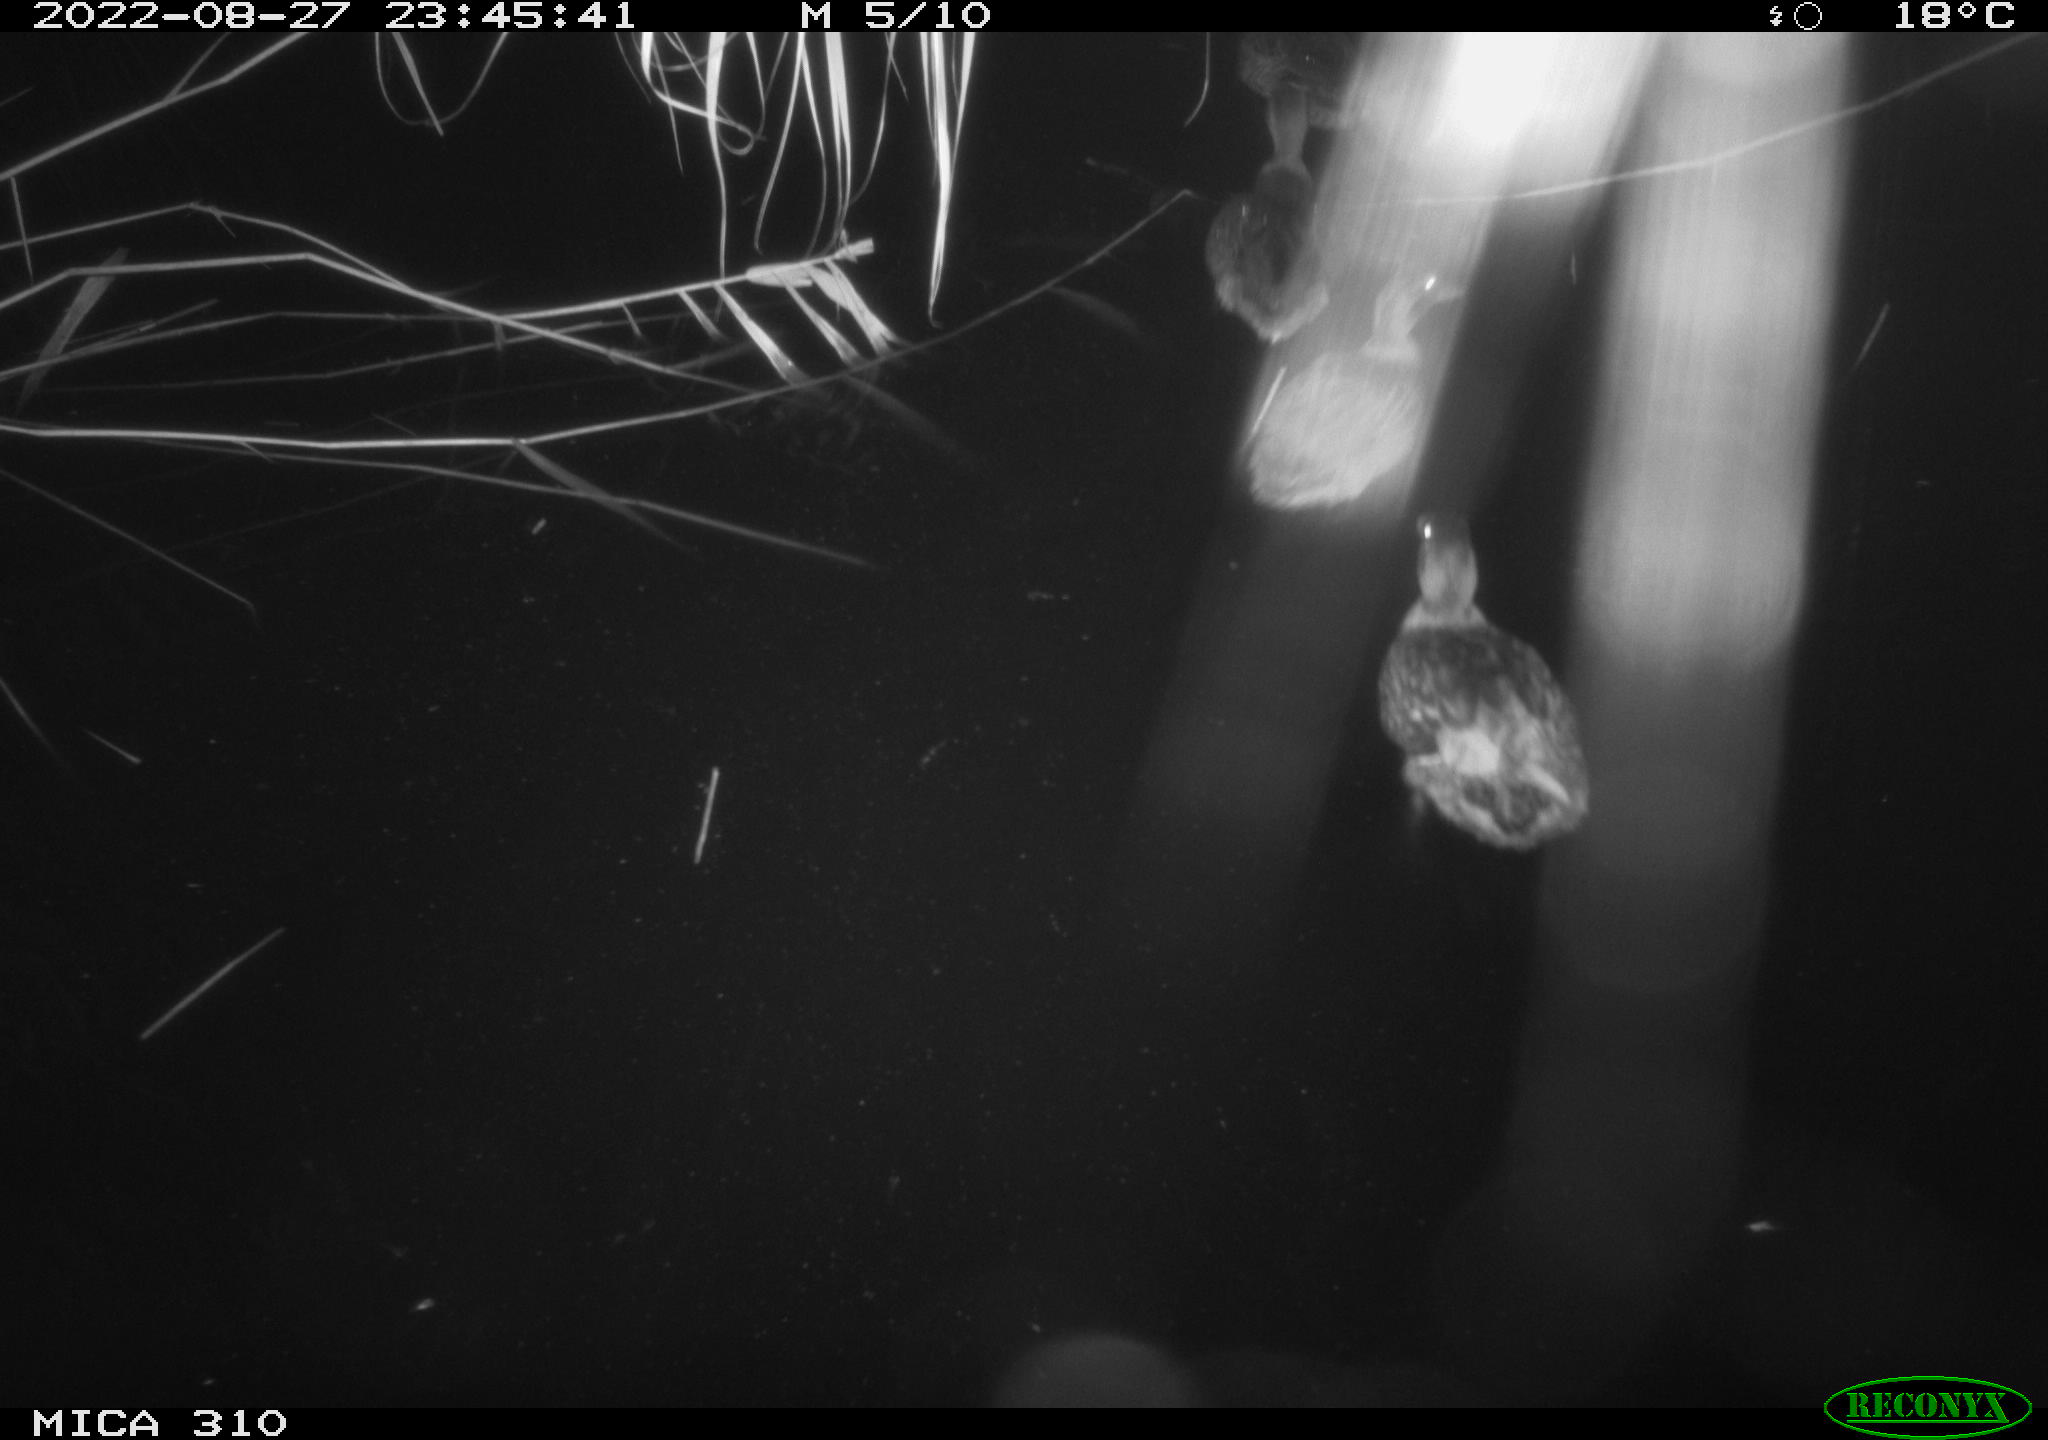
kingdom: Animalia
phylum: Chordata
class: Aves
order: Anseriformes
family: Anatidae
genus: Anas
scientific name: Anas platyrhynchos
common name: Mallard
